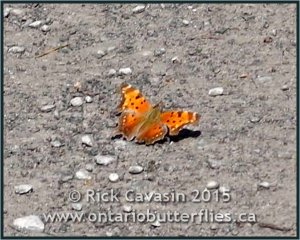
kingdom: Animalia
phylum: Arthropoda
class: Insecta
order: Lepidoptera
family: Nymphalidae
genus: Polygonia
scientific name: Polygonia progne
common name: Gray Comma
